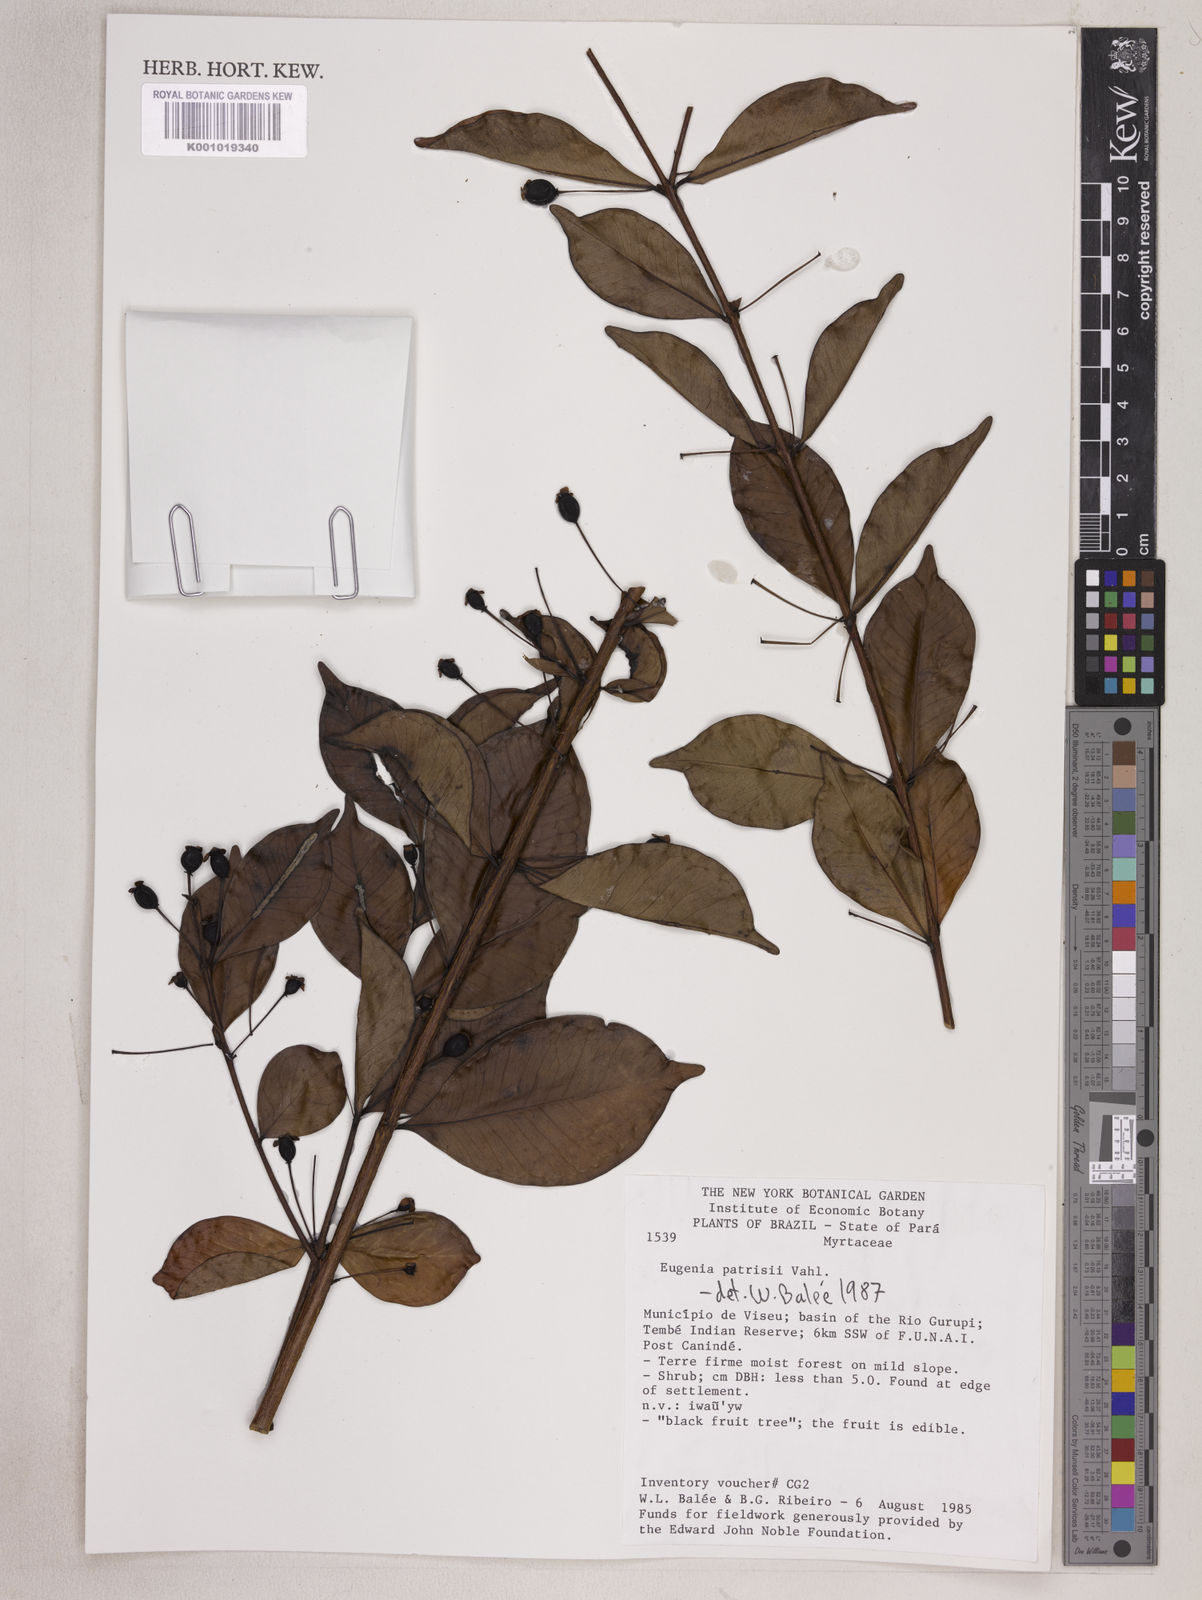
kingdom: Plantae
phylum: Tracheophyta
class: Magnoliopsida
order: Myrtales
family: Myrtaceae
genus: Eugenia
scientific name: Eugenia patrisii
